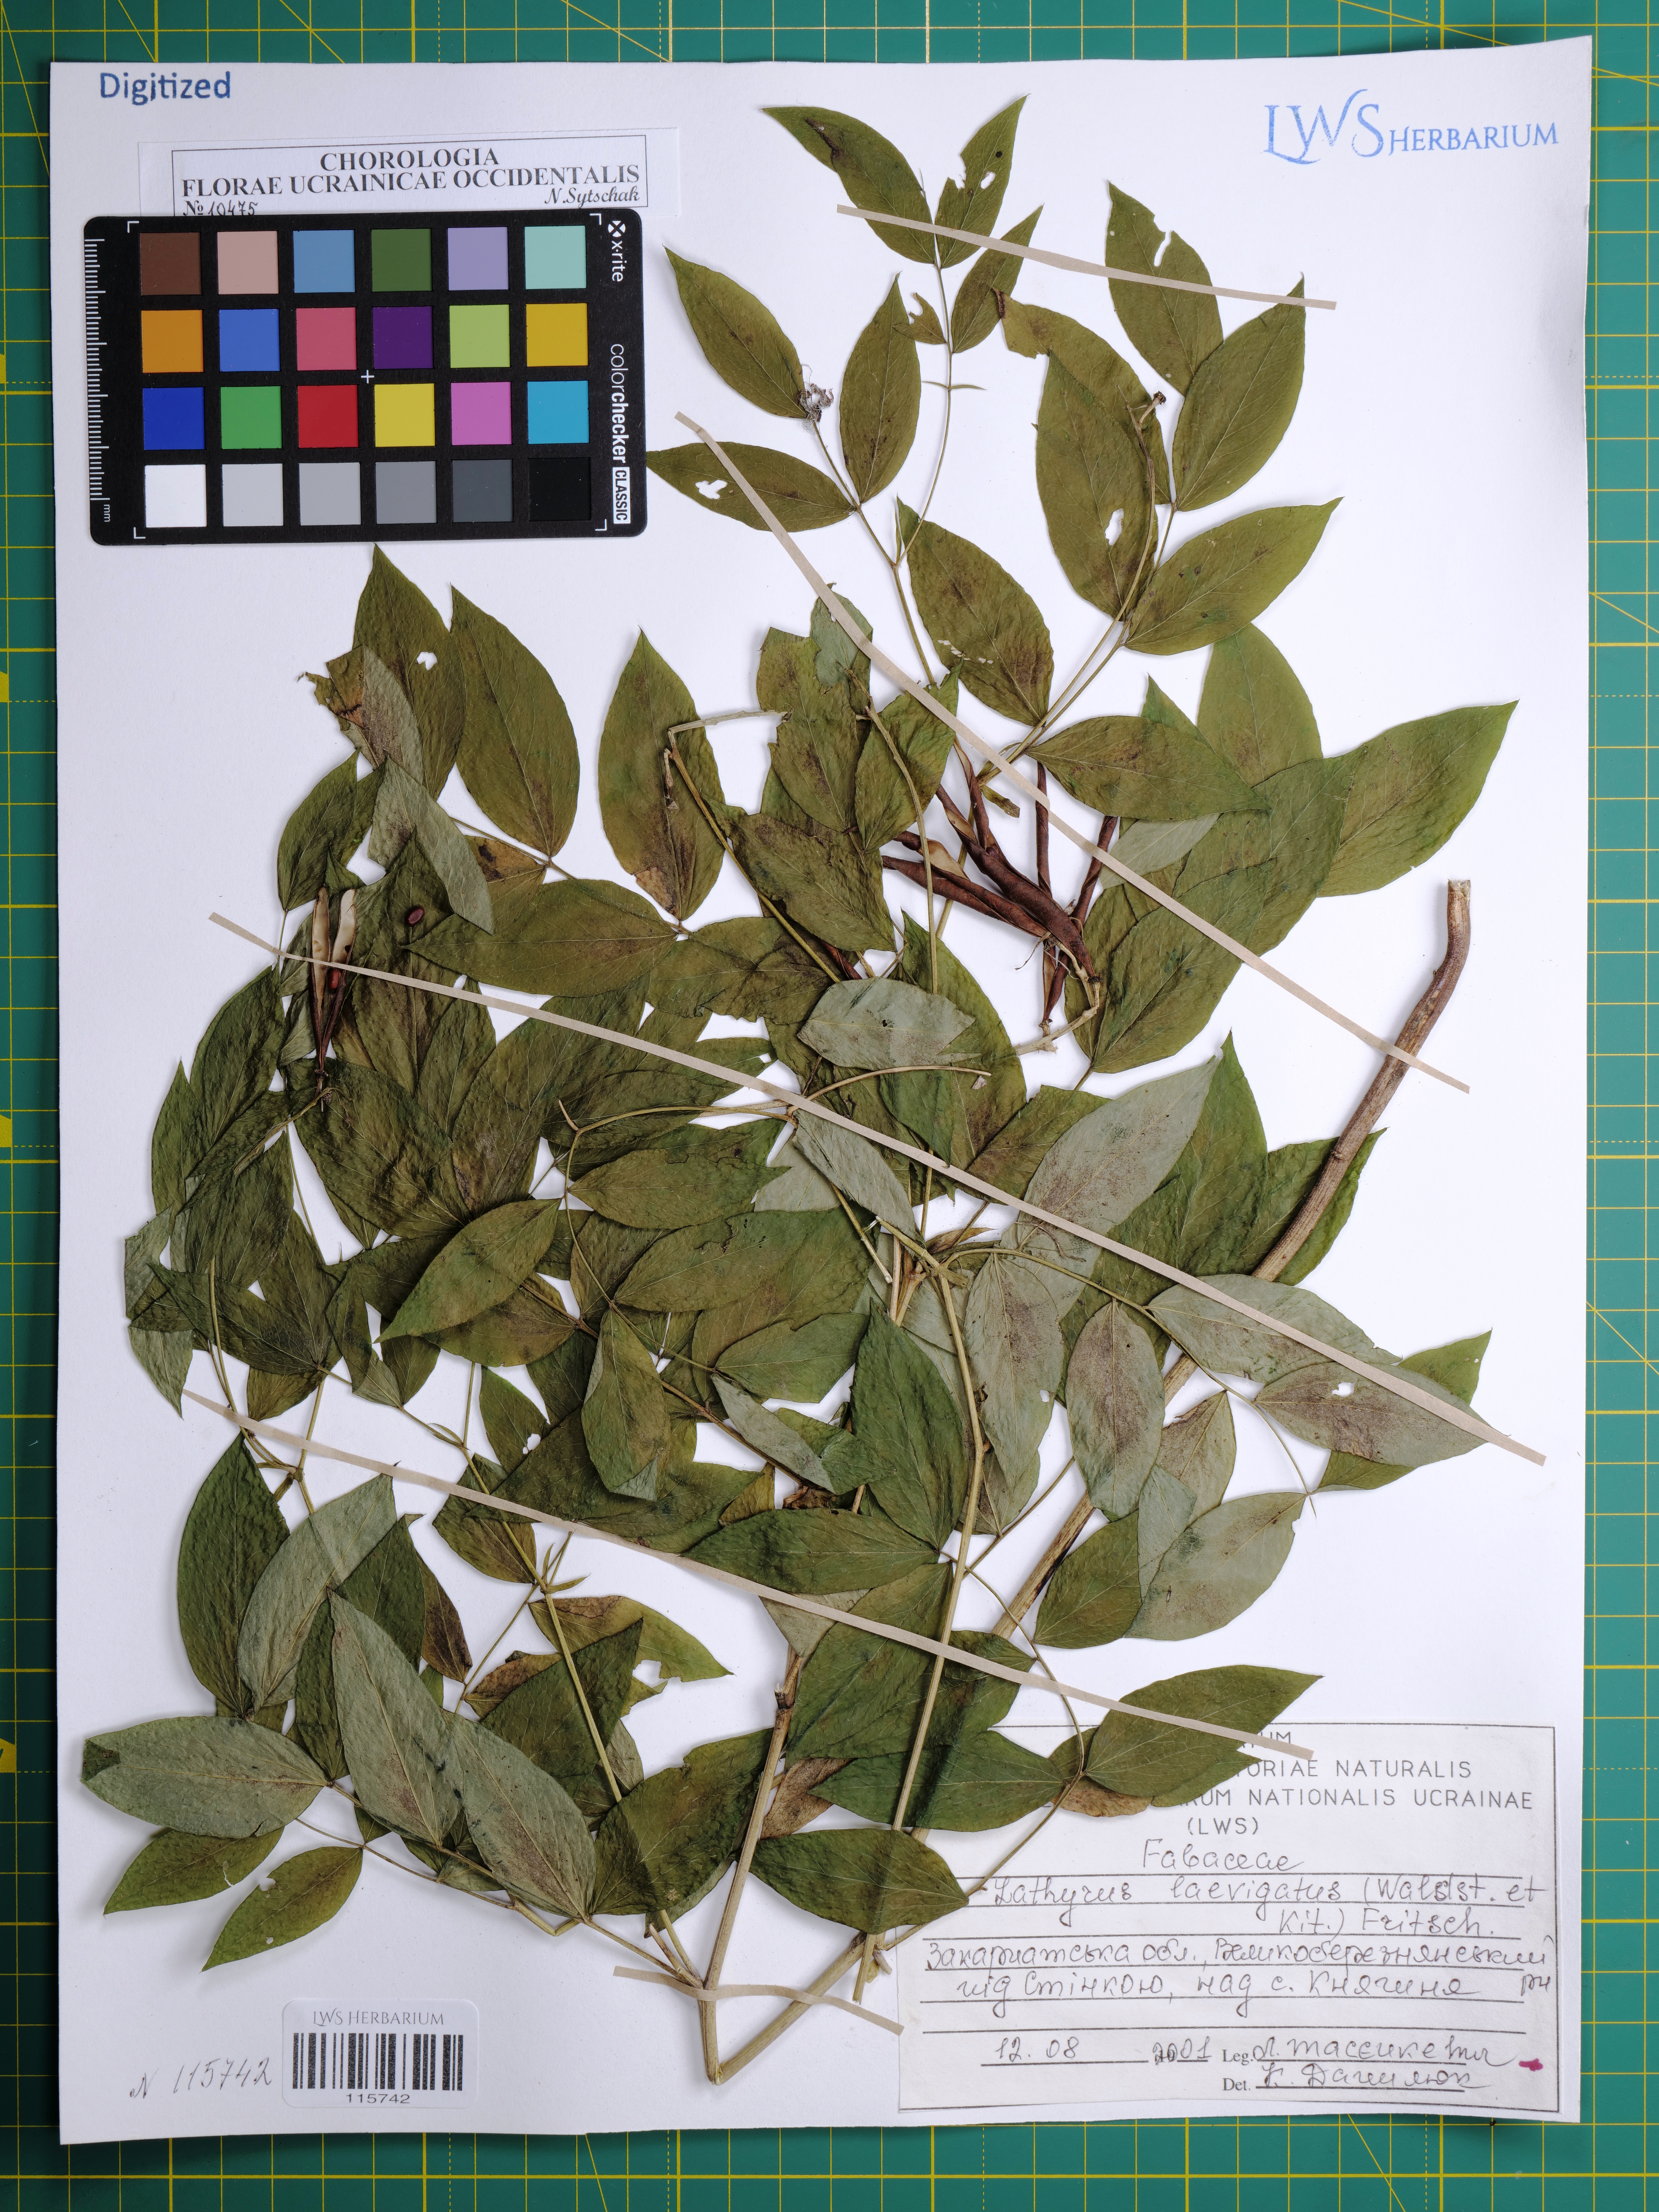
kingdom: Plantae
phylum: Tracheophyta
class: Magnoliopsida
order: Fabales
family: Fabaceae
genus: Lathyrus
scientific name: Lathyrus laevigatus
